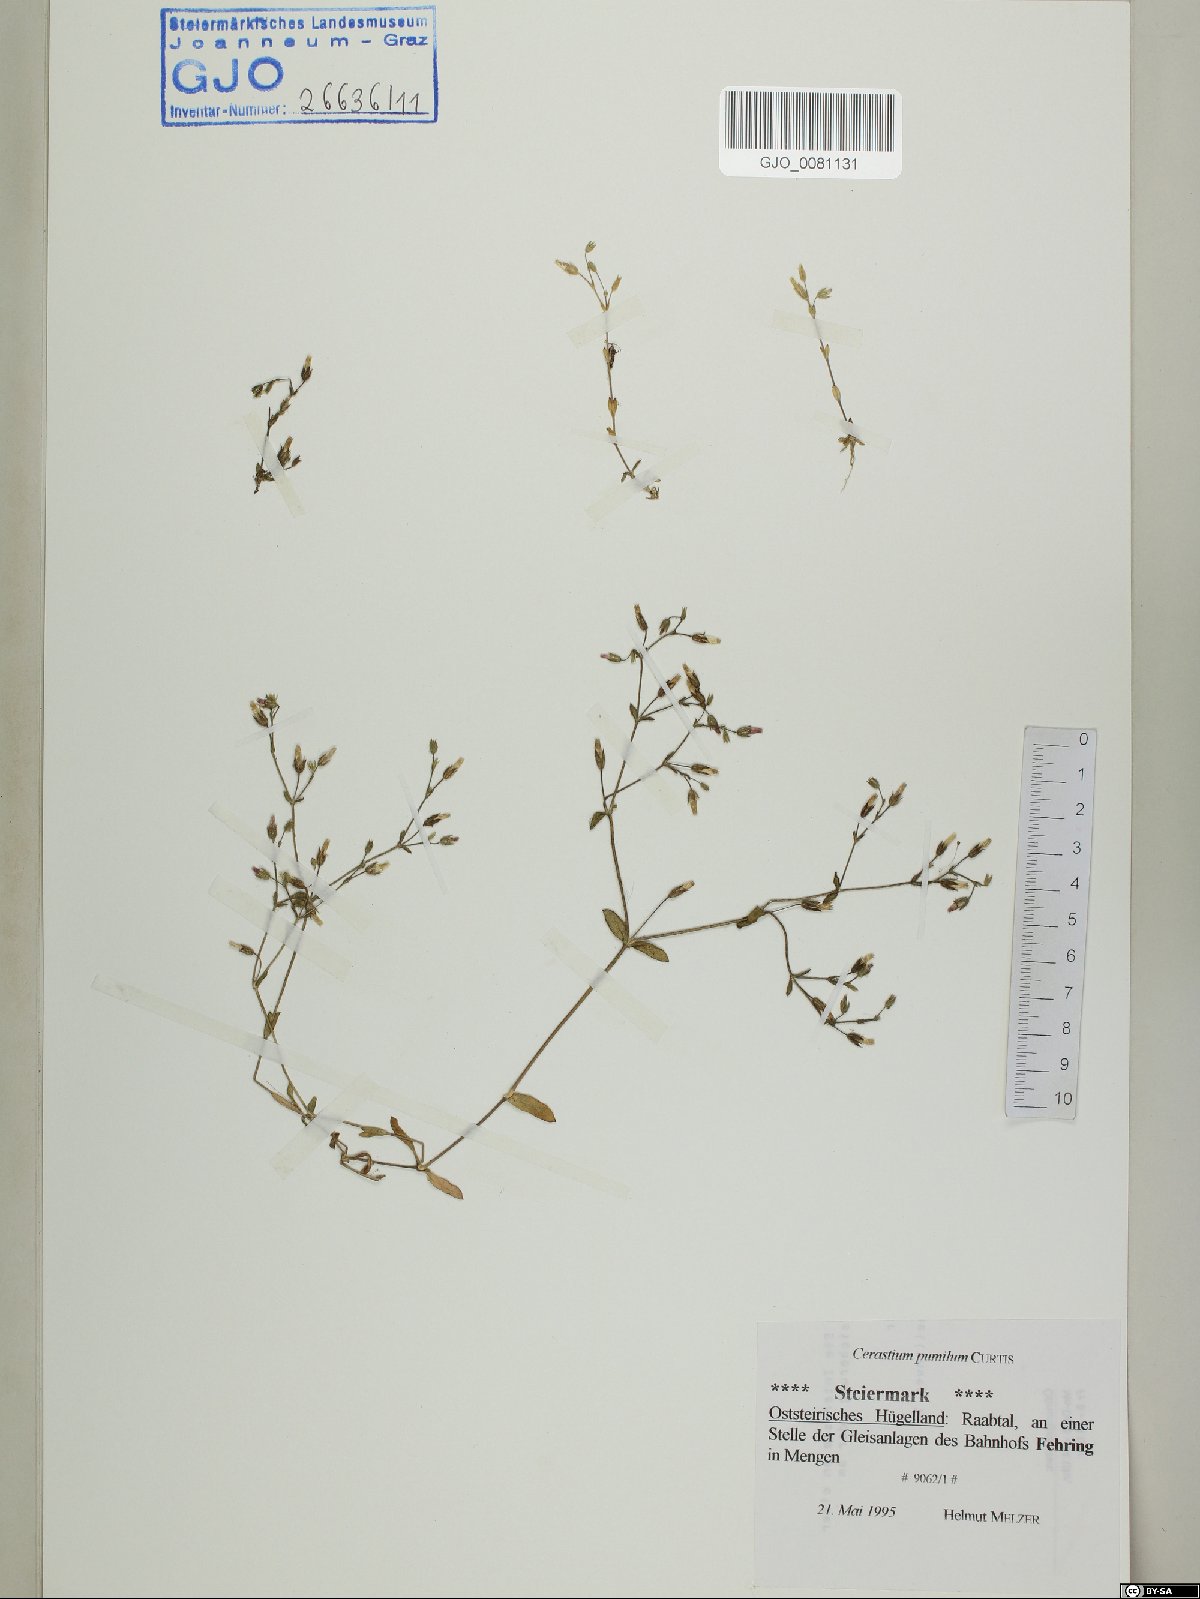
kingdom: Plantae
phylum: Tracheophyta
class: Magnoliopsida
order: Caryophyllales
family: Caryophyllaceae
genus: Cerastium
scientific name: Cerastium pumilum
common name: Dwarf mouse-ear
